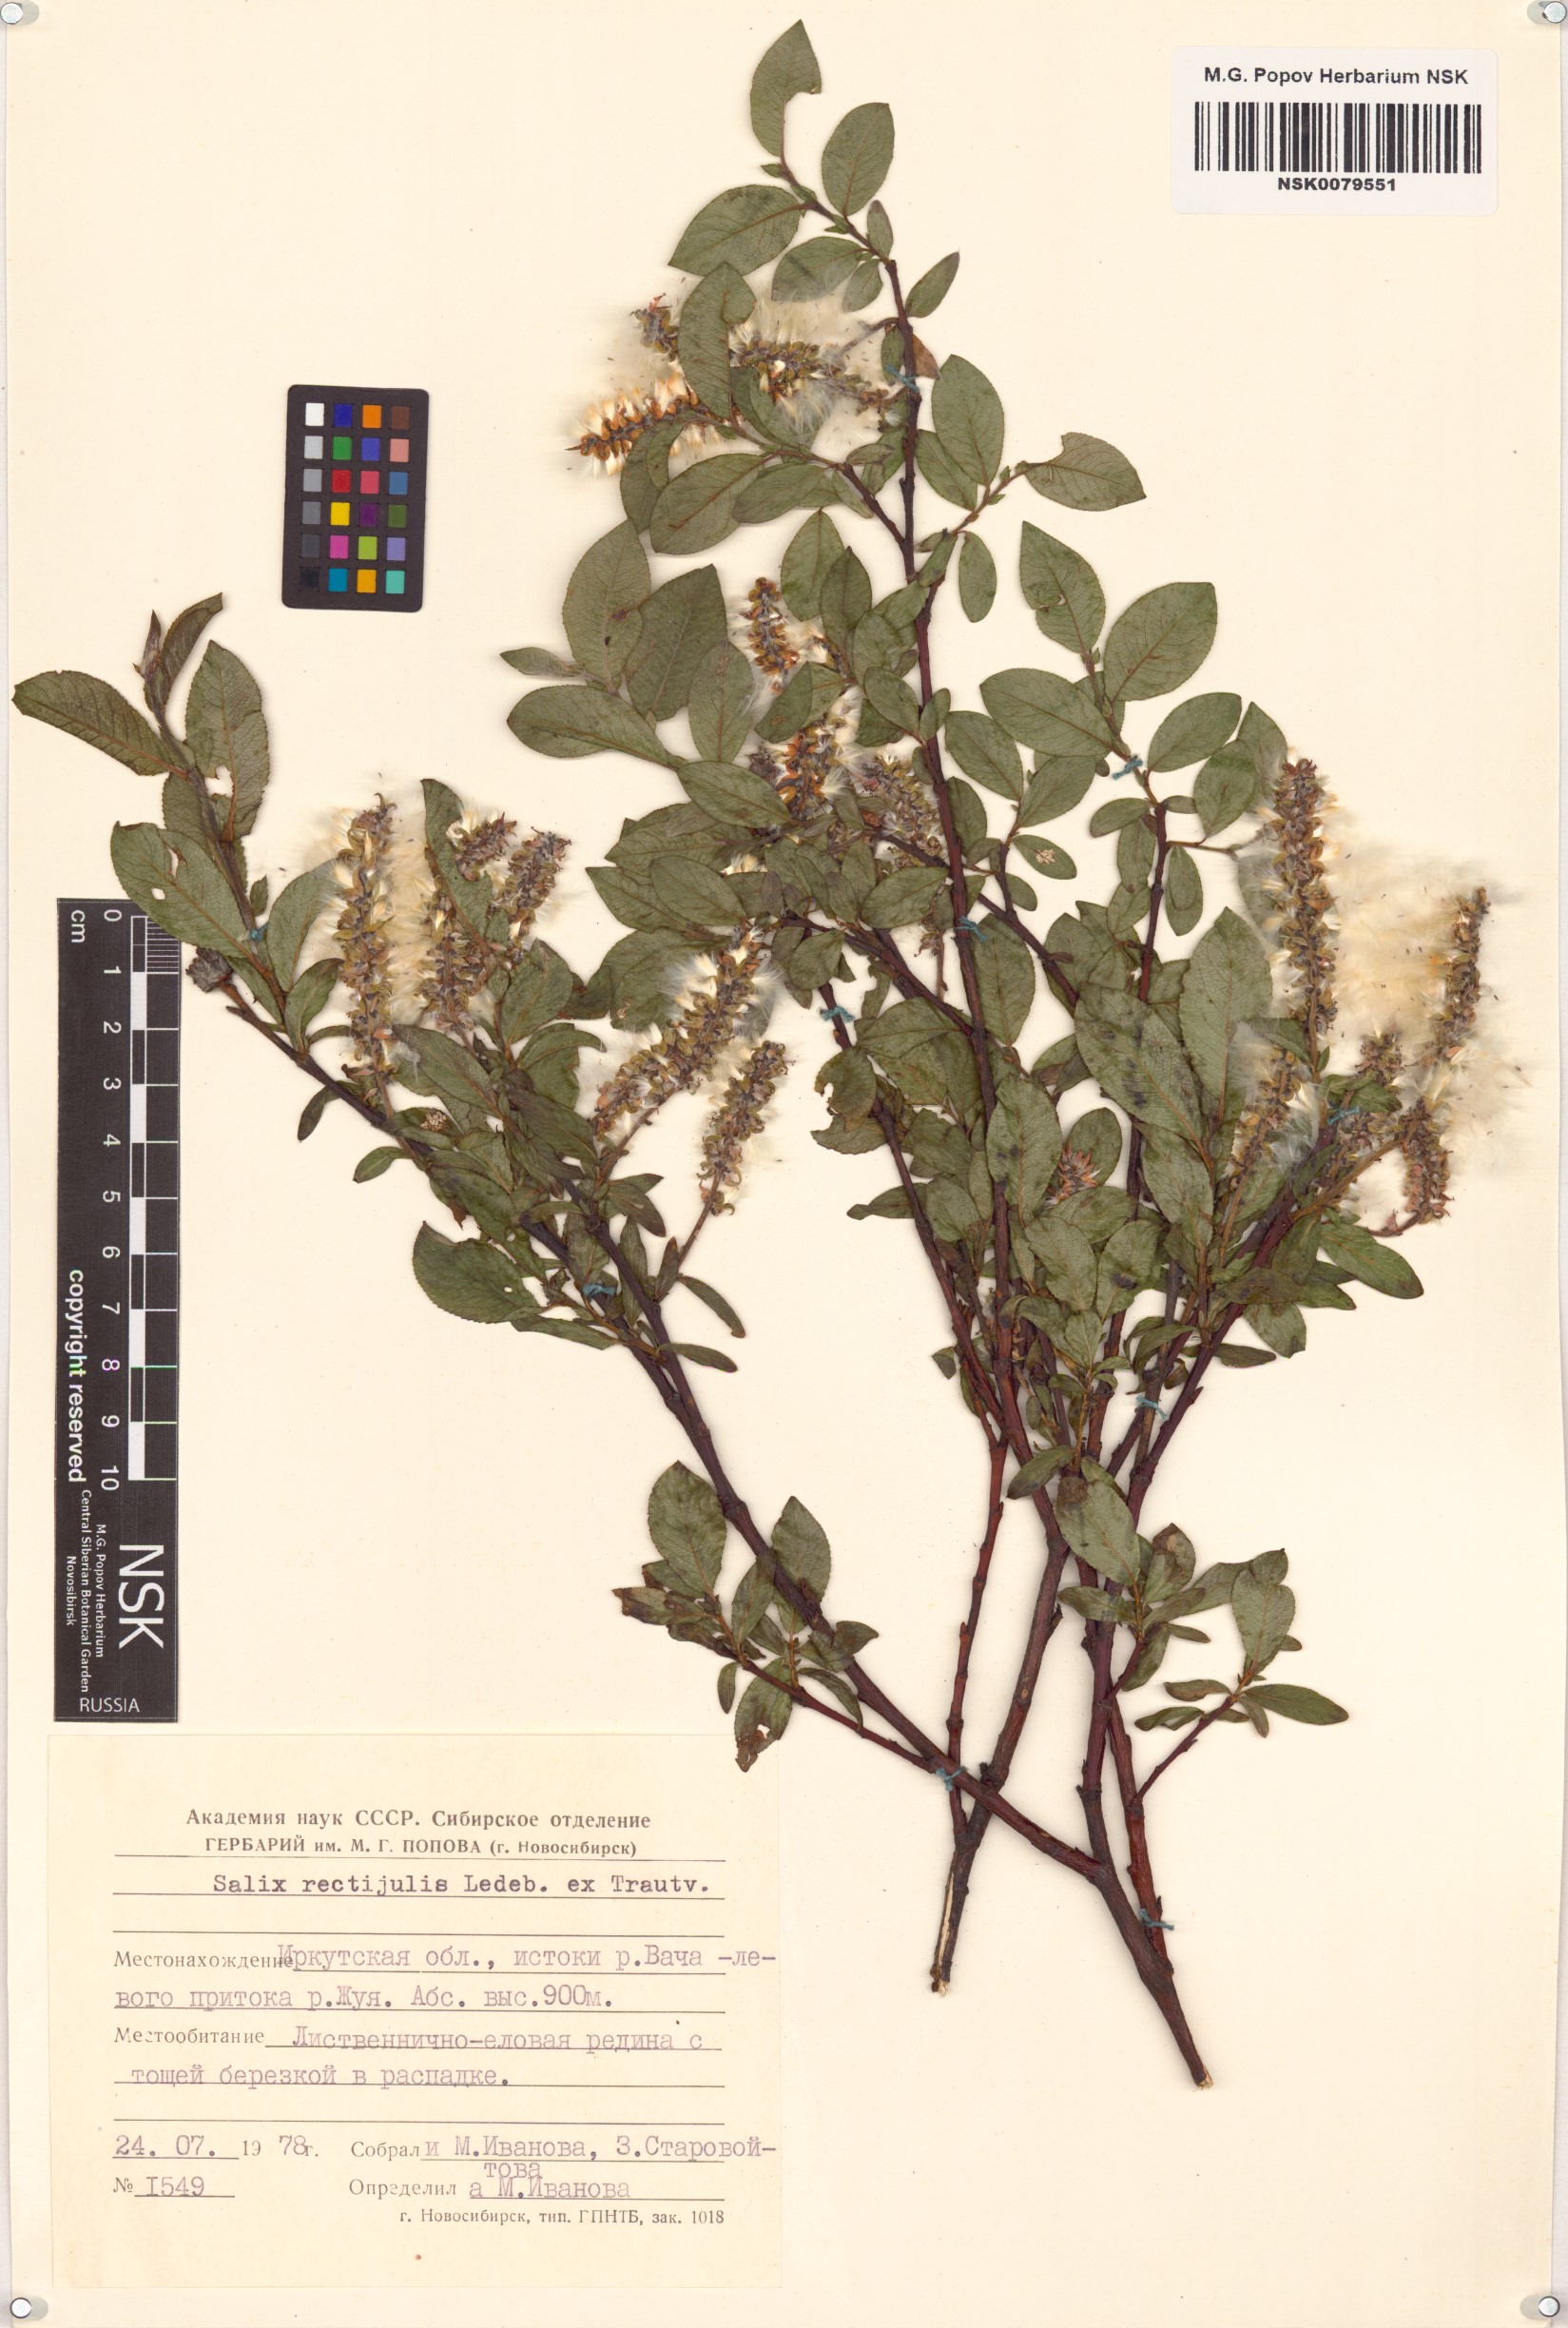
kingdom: Plantae
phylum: Tracheophyta
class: Magnoliopsida
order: Malpighiales
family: Salicaceae
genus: Salix
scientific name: Salix rectijulis
